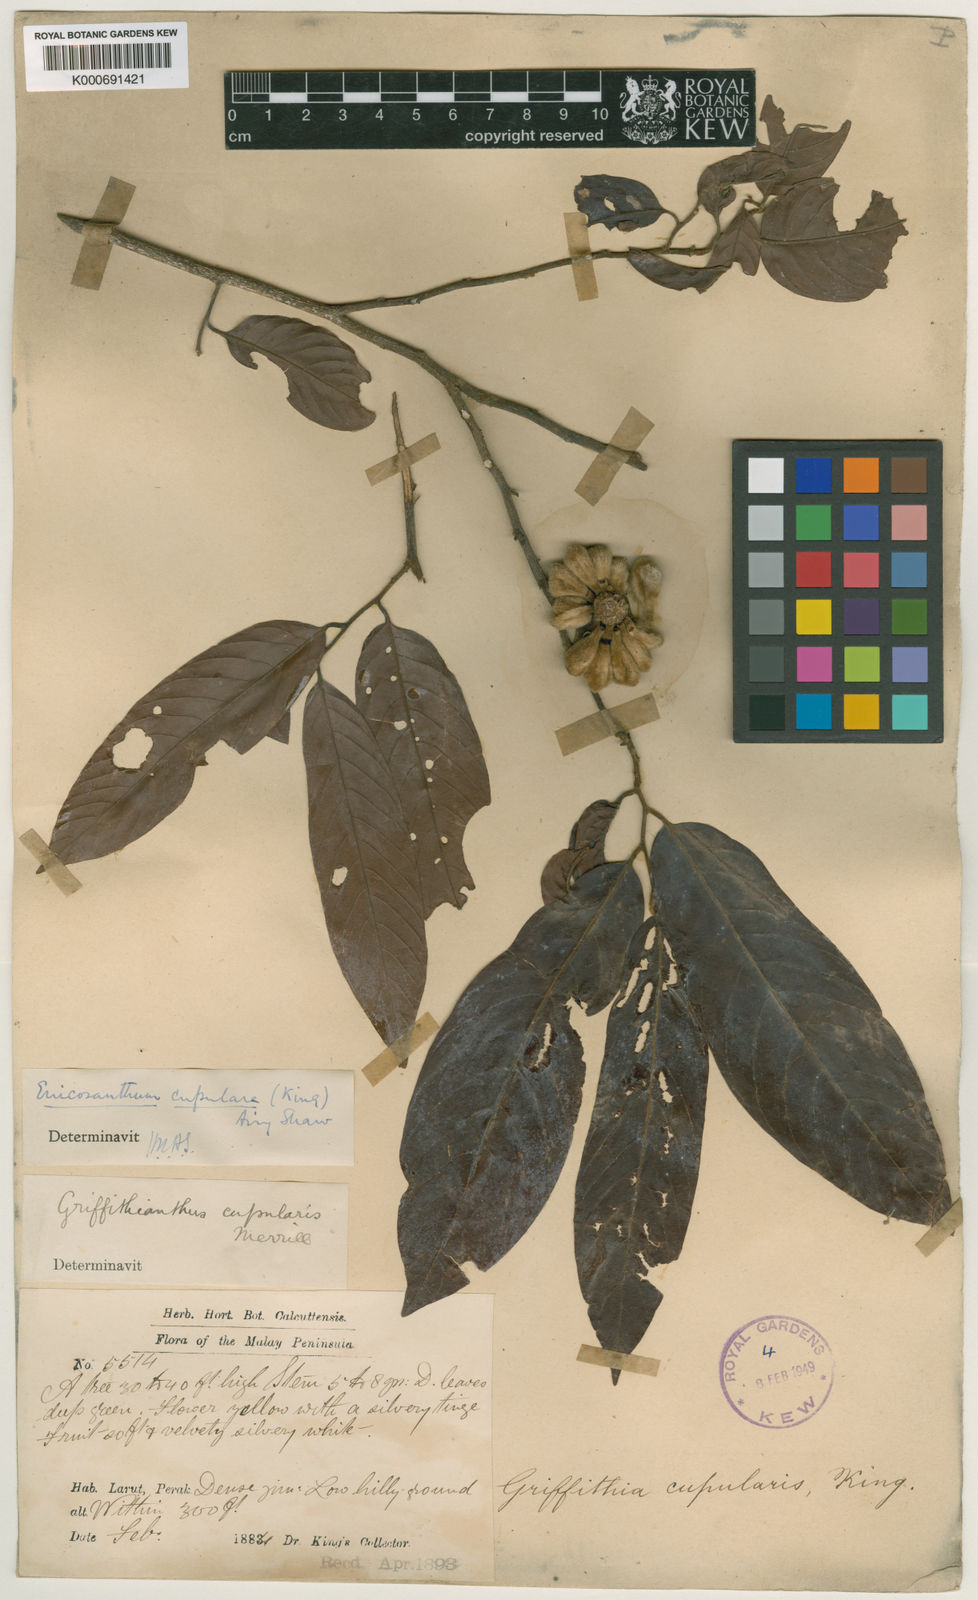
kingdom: Plantae
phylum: Tracheophyta
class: Magnoliopsida
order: Magnoliales
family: Annonaceae
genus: Enicosanthum
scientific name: Enicosanthum cupulare
